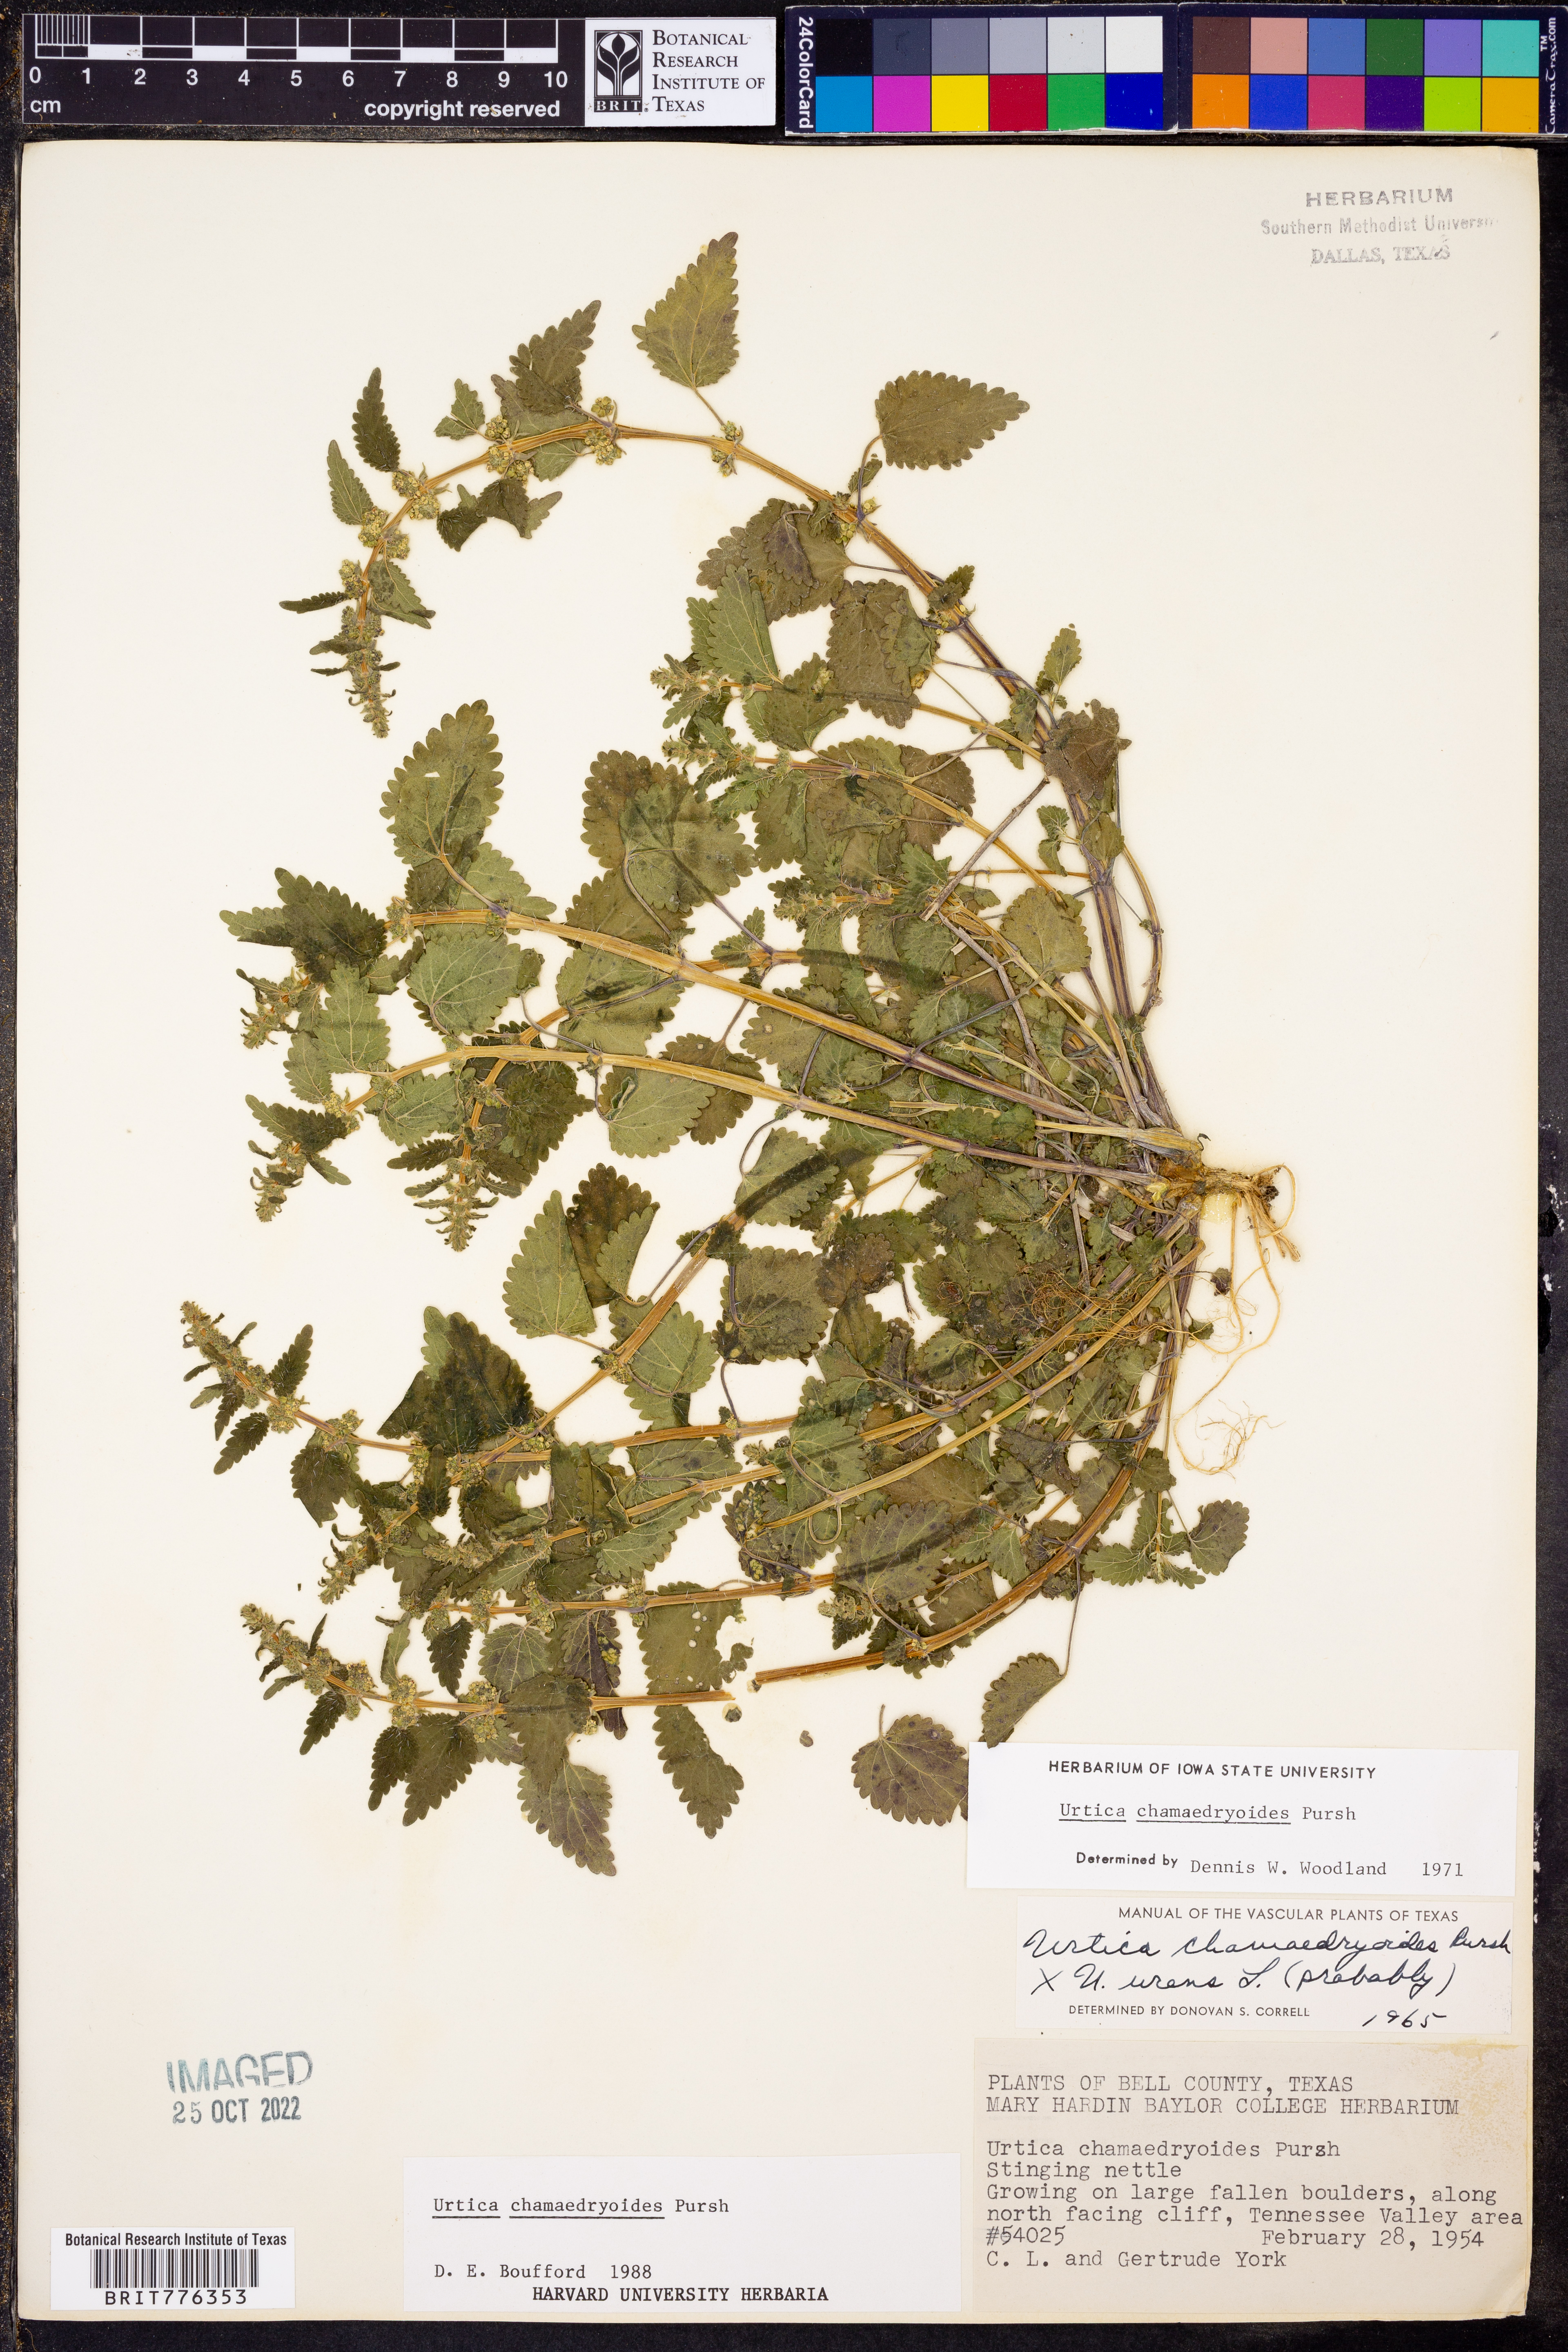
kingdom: Plantae
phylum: Tracheophyta
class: Magnoliopsida
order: Rosales
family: Urticaceae
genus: Urtica
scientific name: Urtica chamaedryoides
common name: Heart-leaf nettle
